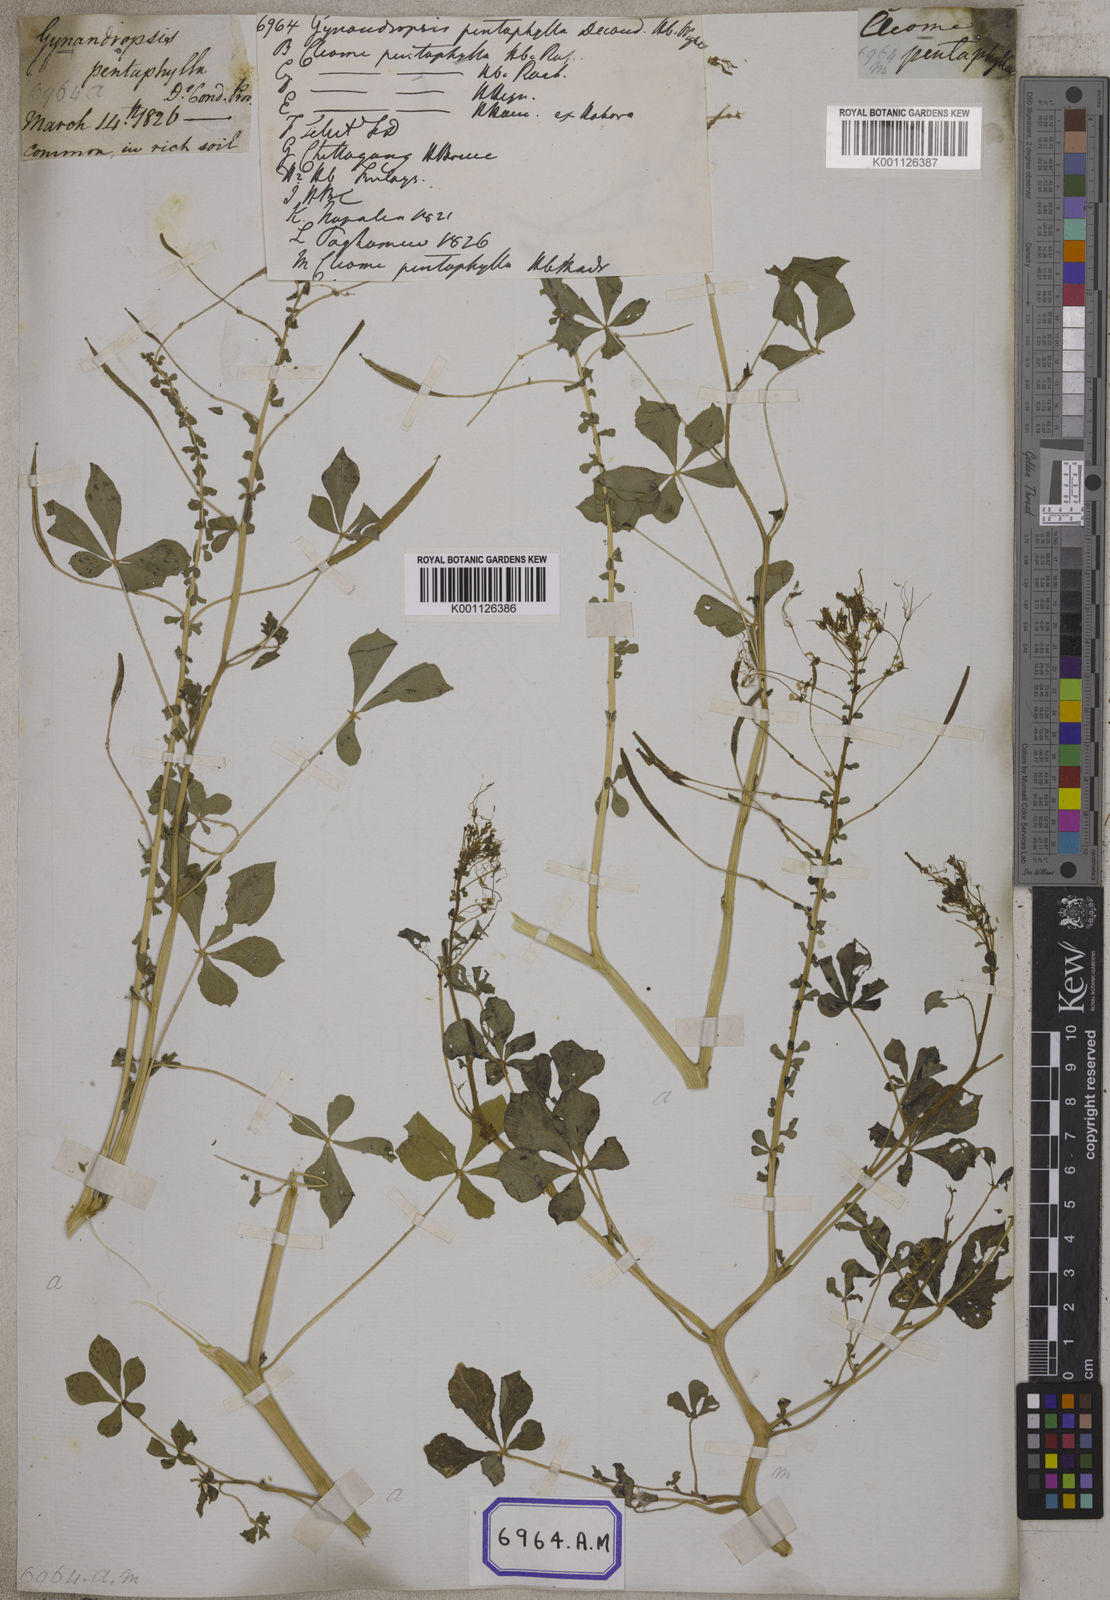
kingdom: Plantae
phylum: Tracheophyta
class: Magnoliopsida
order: Brassicales
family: Cleomaceae
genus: Gynandropsis
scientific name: Gynandropsis gynandra
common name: Spiderwisp
